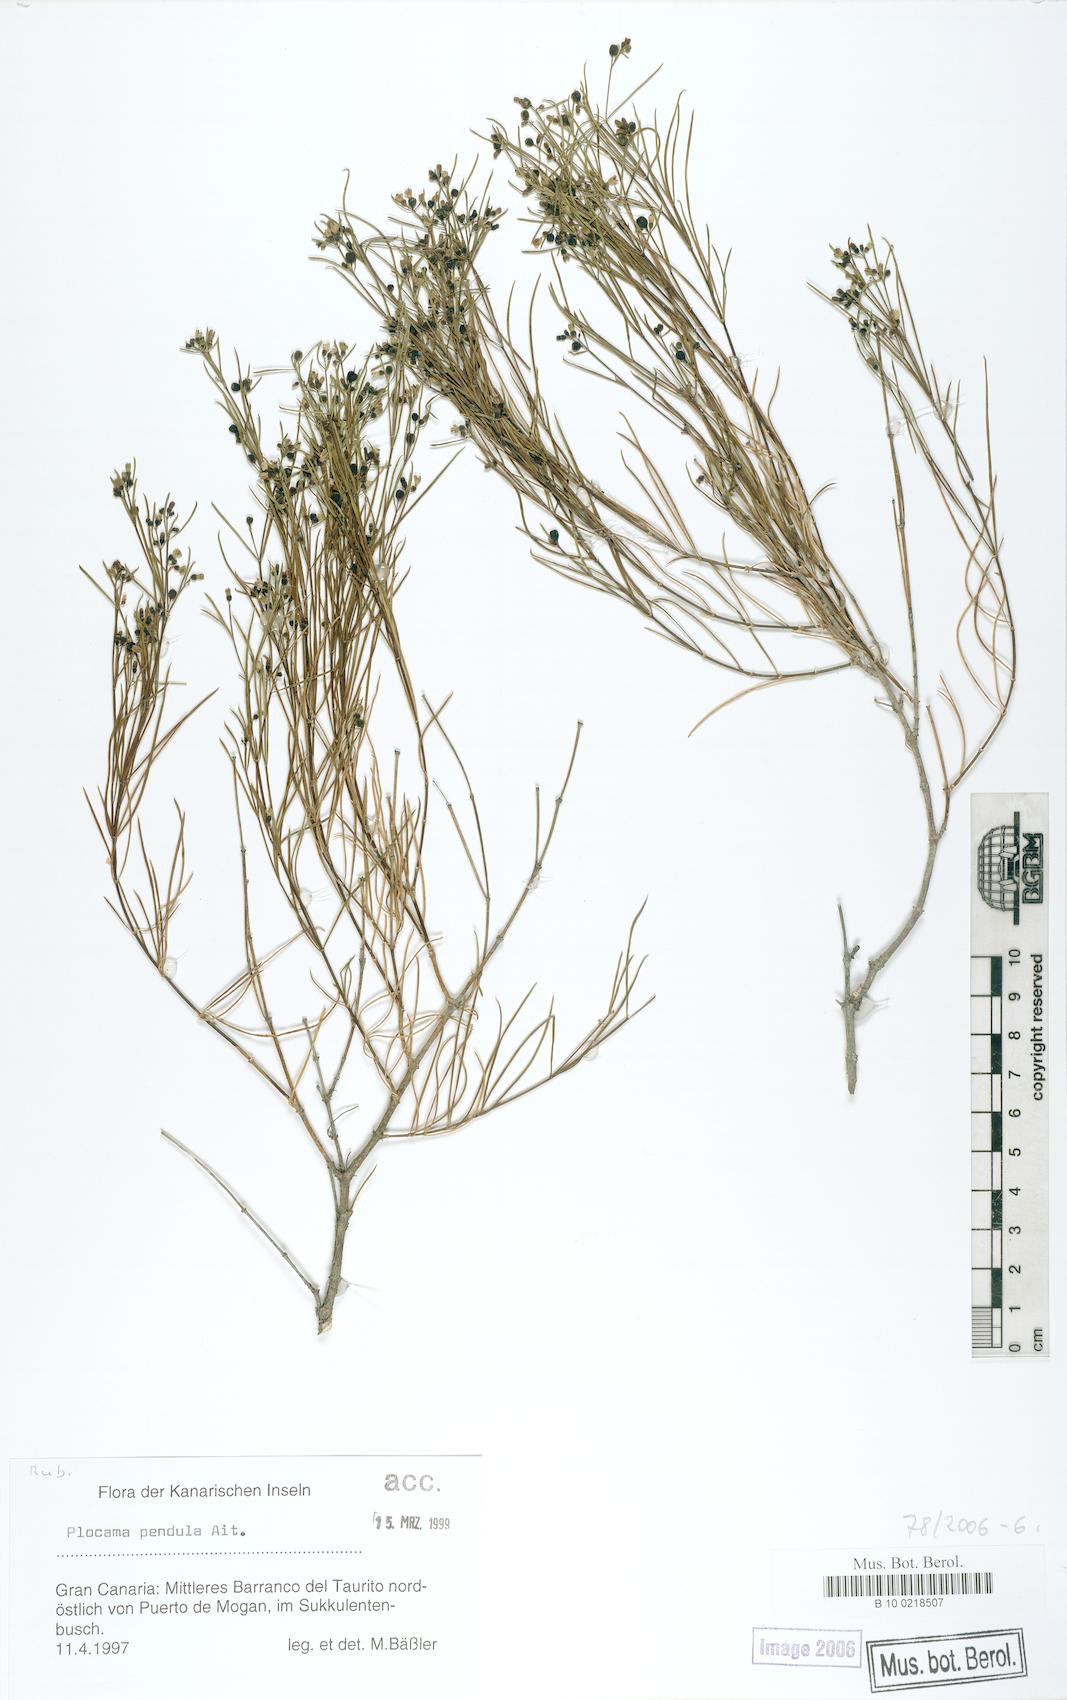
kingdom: Plantae
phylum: Tracheophyta
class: Magnoliopsida
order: Gentianales
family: Rubiaceae
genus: Plocama
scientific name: Plocama pendula
